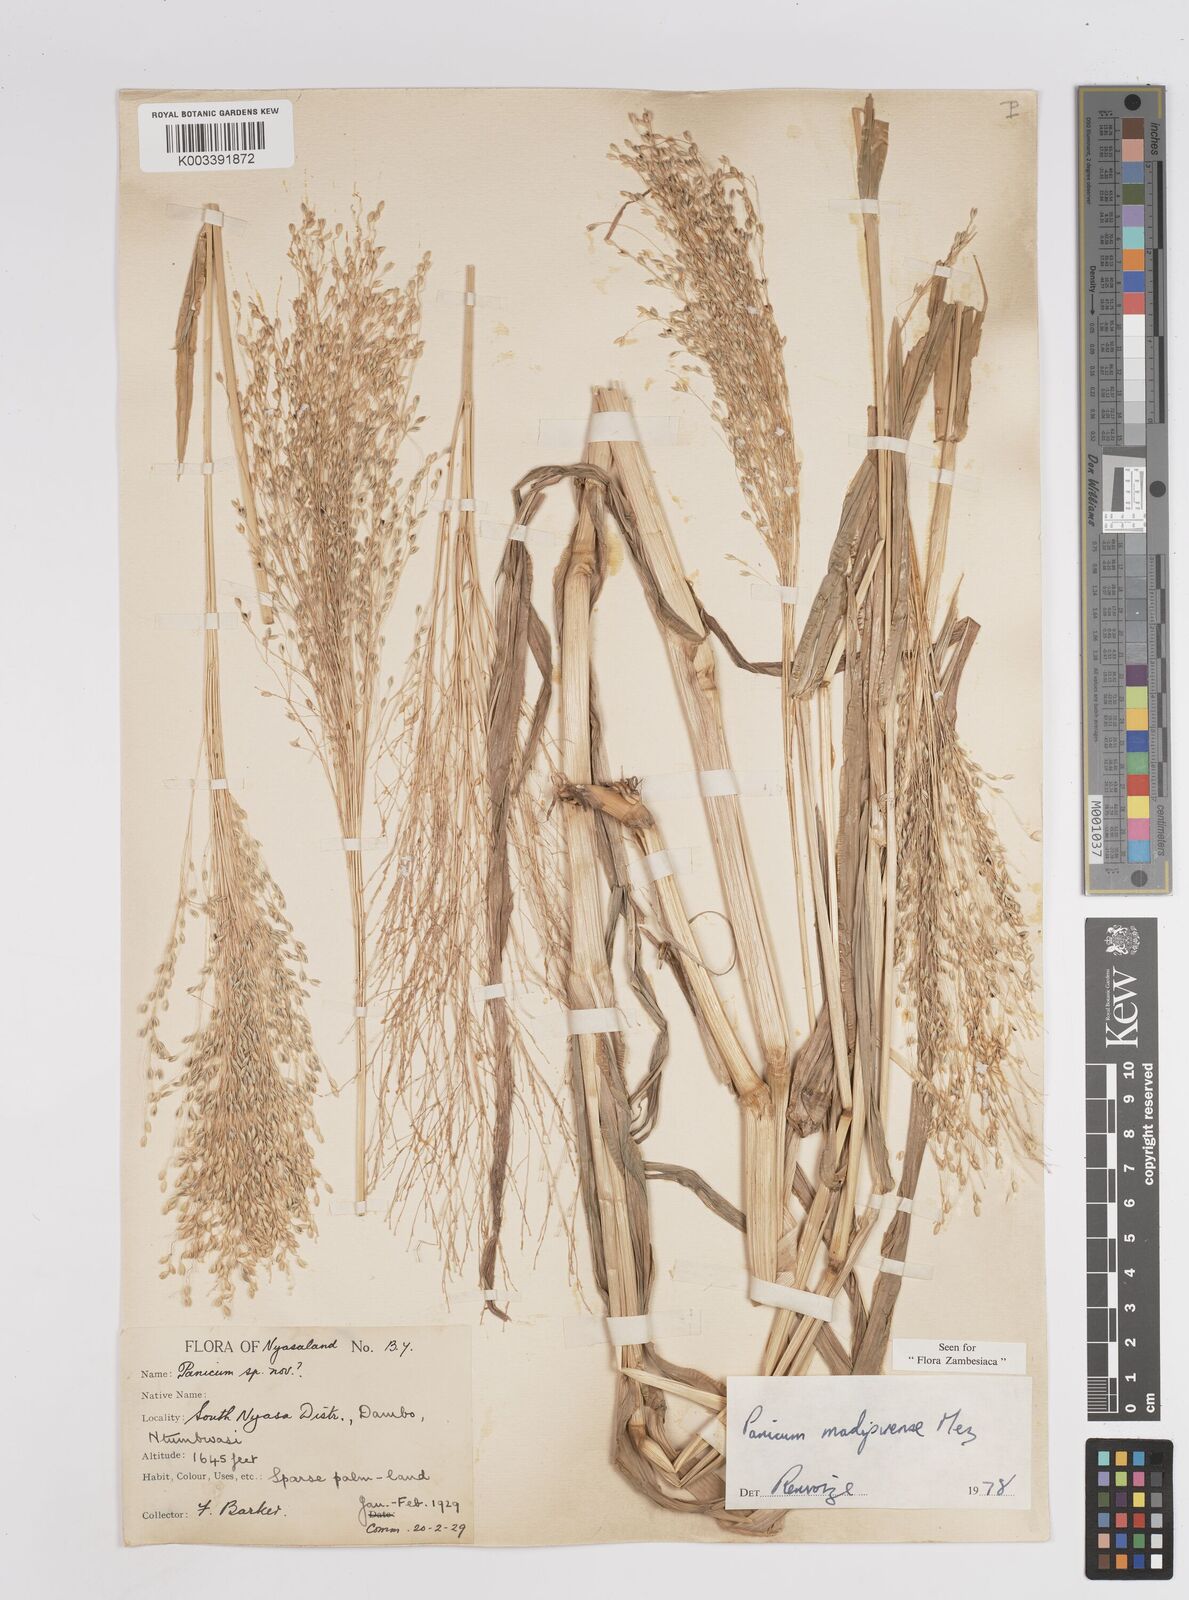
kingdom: Plantae
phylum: Tracheophyta
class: Liliopsida
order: Poales
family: Poaceae
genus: Panicum
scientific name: Panicum madipirense
